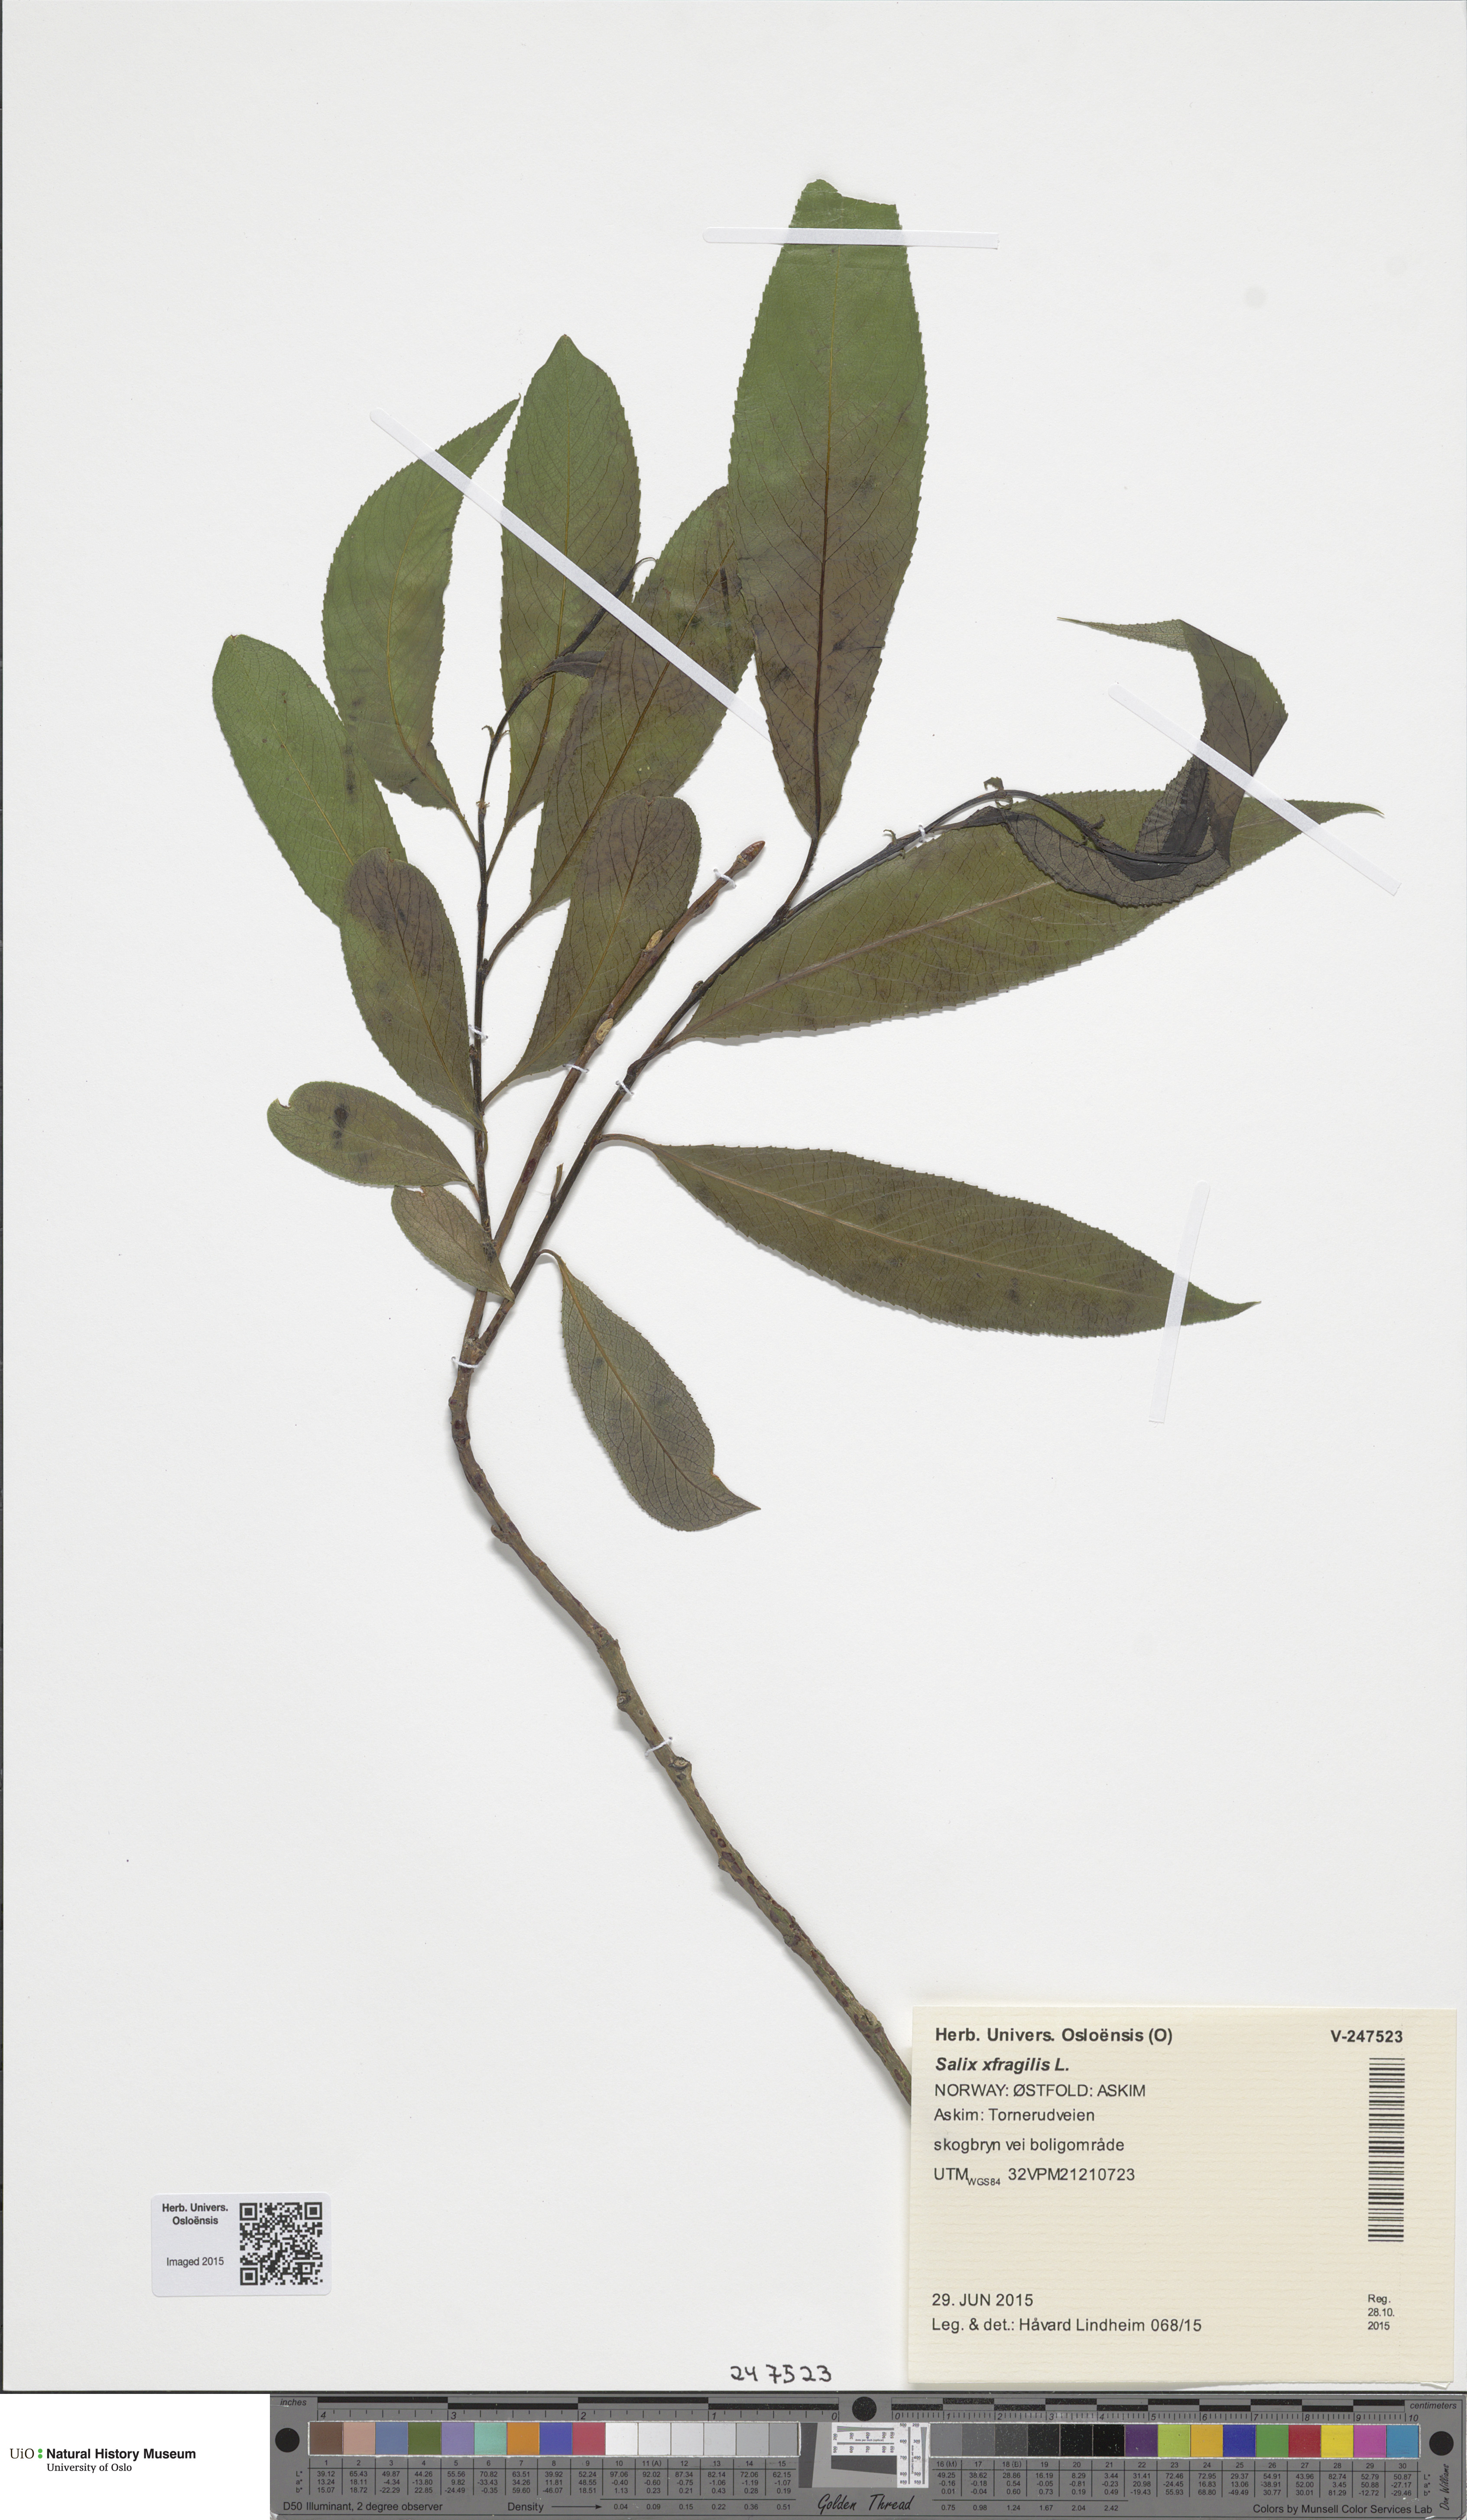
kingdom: Plantae
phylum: Tracheophyta
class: Magnoliopsida
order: Malpighiales
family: Salicaceae
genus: Salix
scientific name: Salix meyeriana
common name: Shiny-leaf willow
